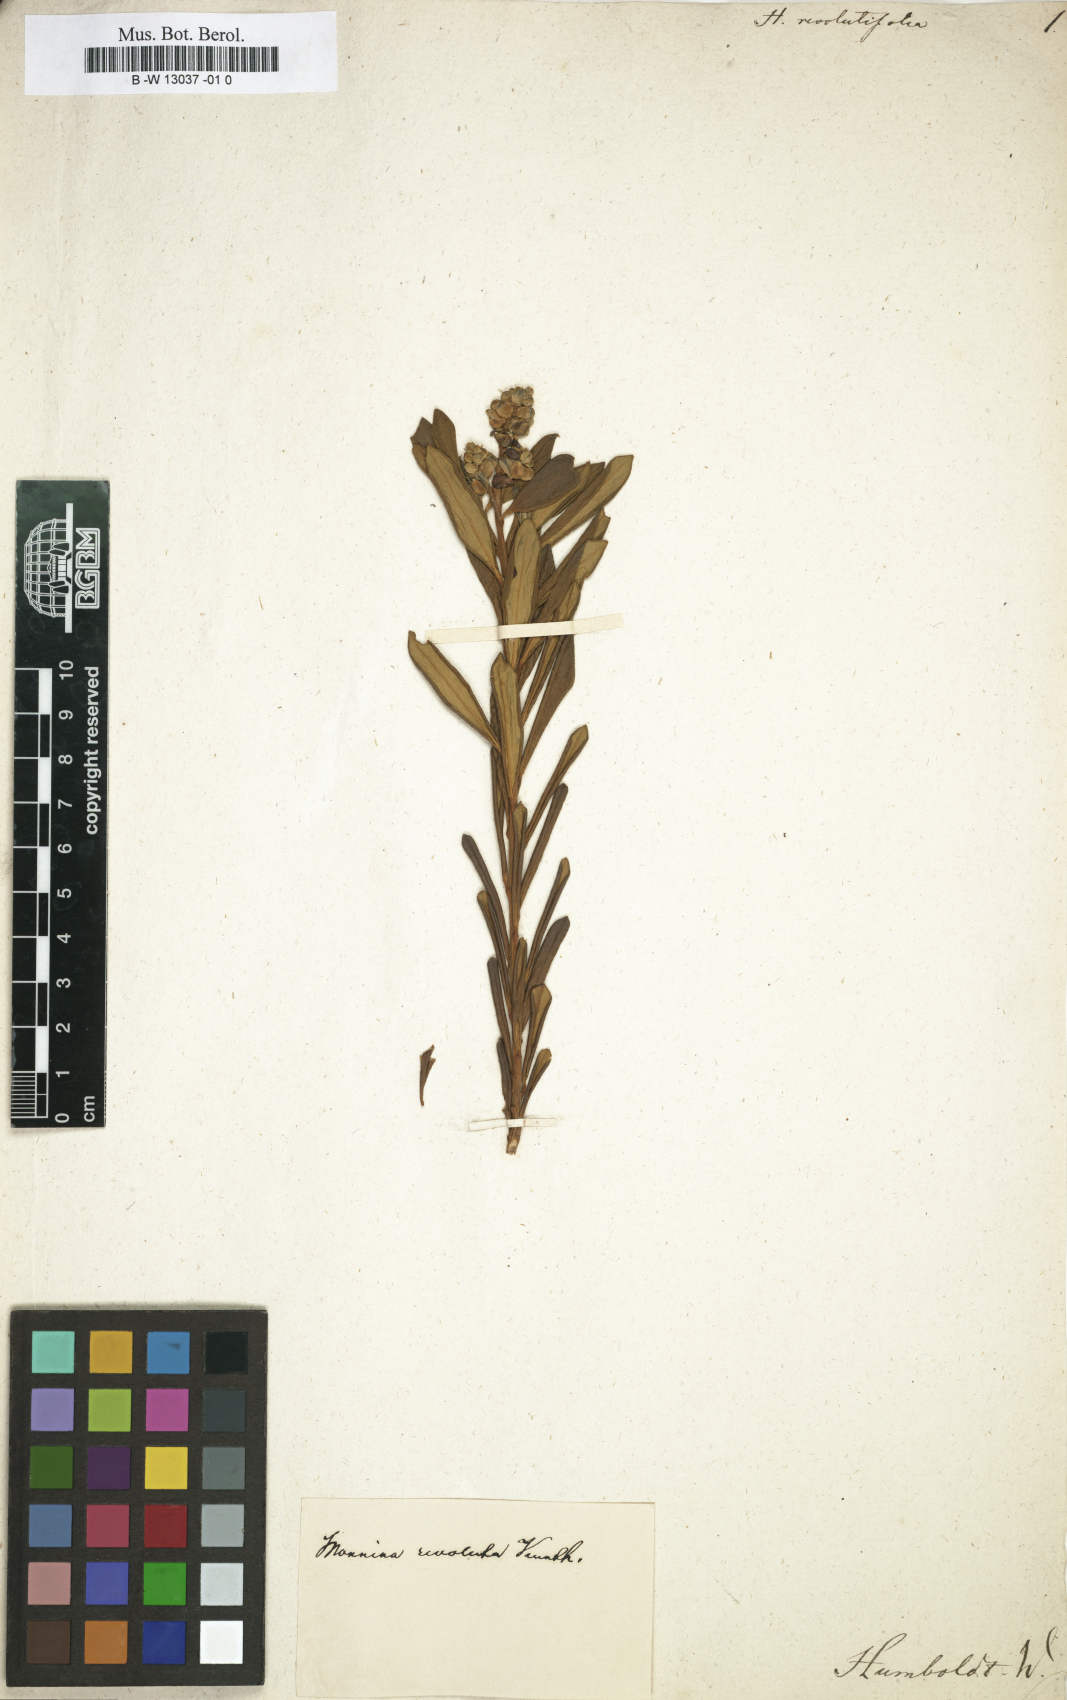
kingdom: Plantae
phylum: Tracheophyta
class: Magnoliopsida
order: Fabales
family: Polygalaceae
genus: Monnina
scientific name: Monnina
